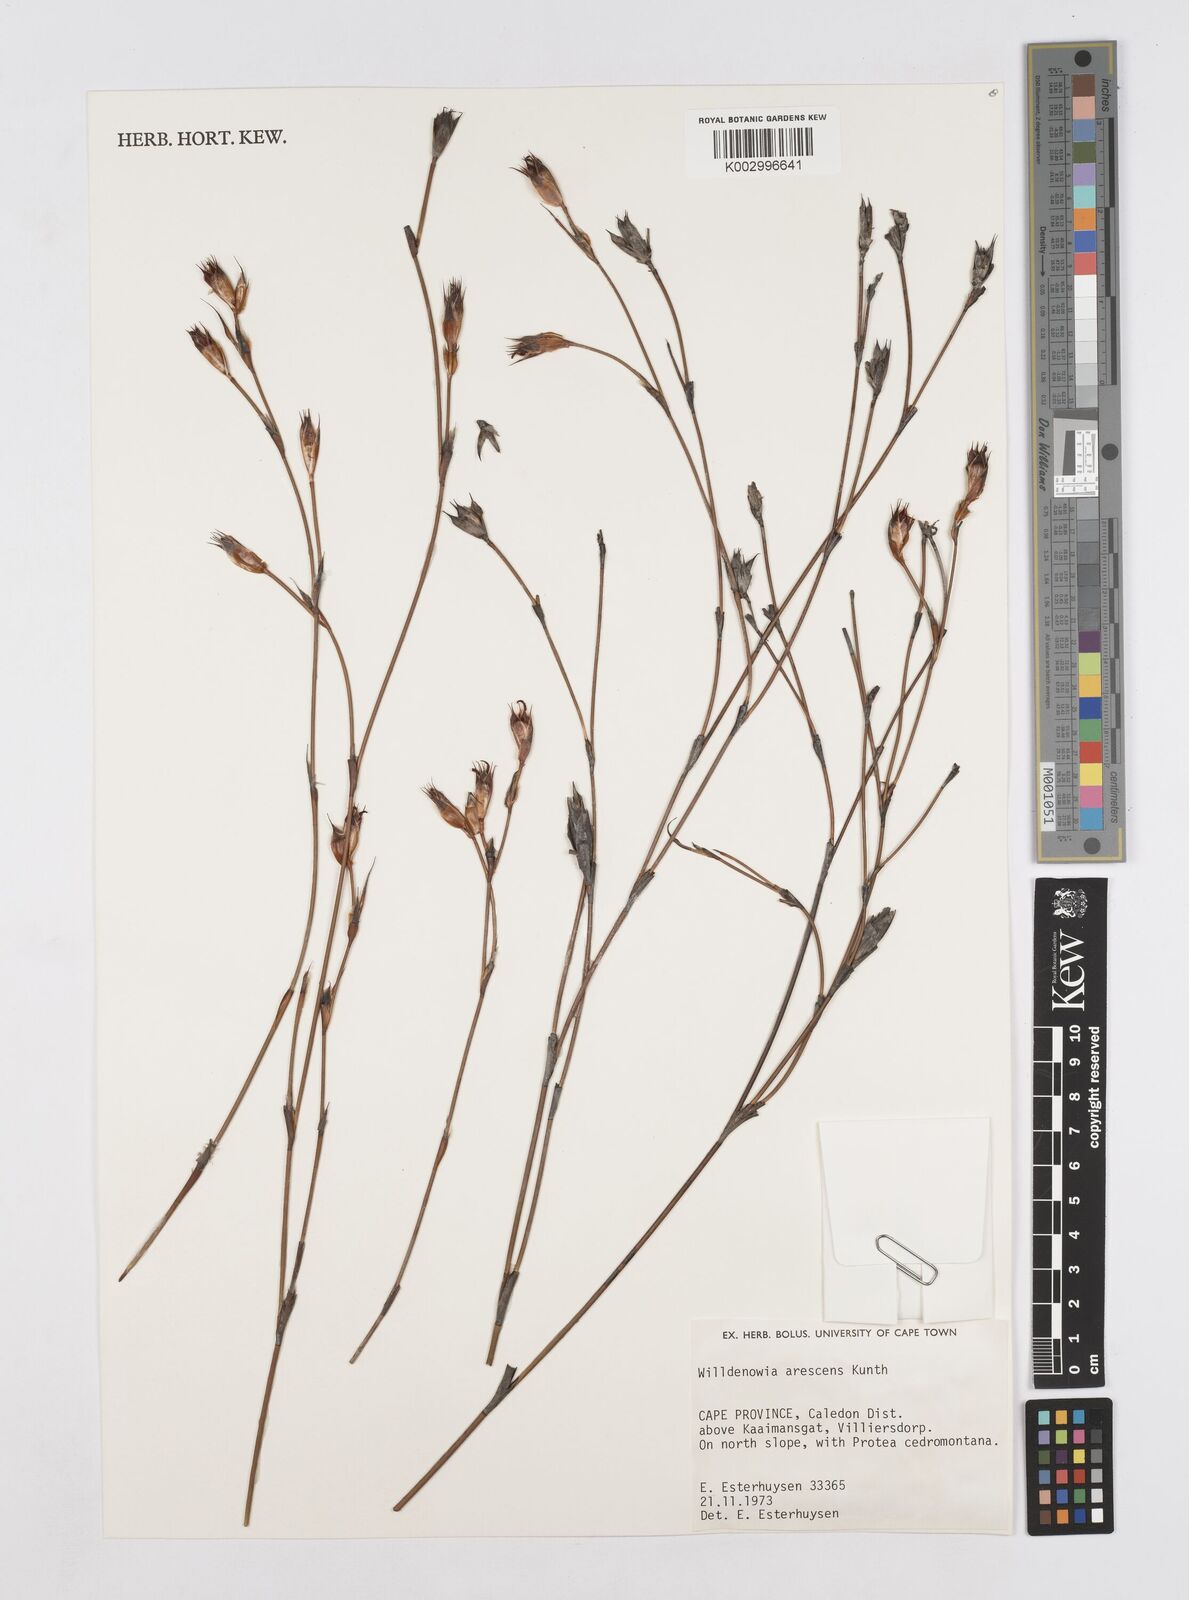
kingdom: Plantae
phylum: Tracheophyta
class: Liliopsida
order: Poales
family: Restionaceae
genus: Willdenowia
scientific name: Willdenowia arescens
